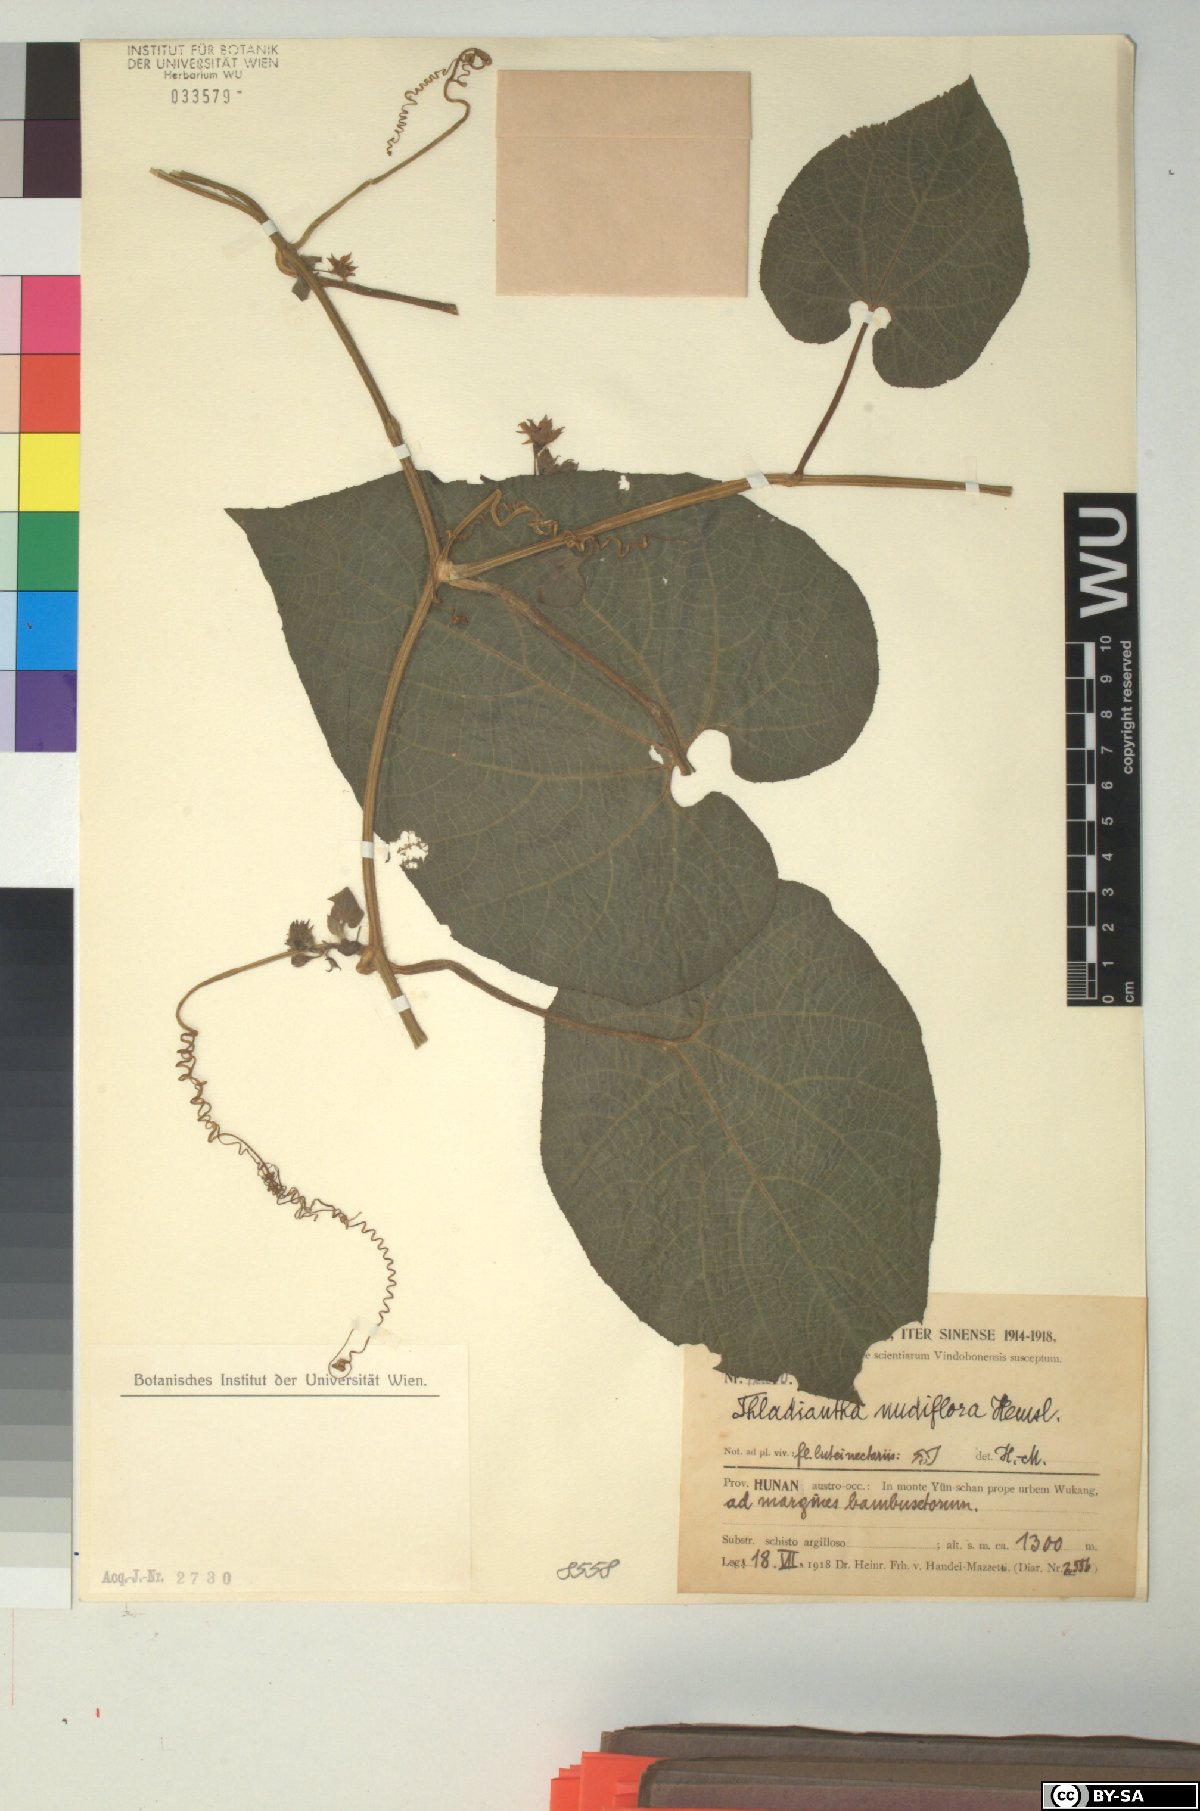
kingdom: Plantae
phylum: Tracheophyta
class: Magnoliopsida
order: Cucurbitales
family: Cucurbitaceae
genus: Thladiantha
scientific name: Thladiantha nudiflora
